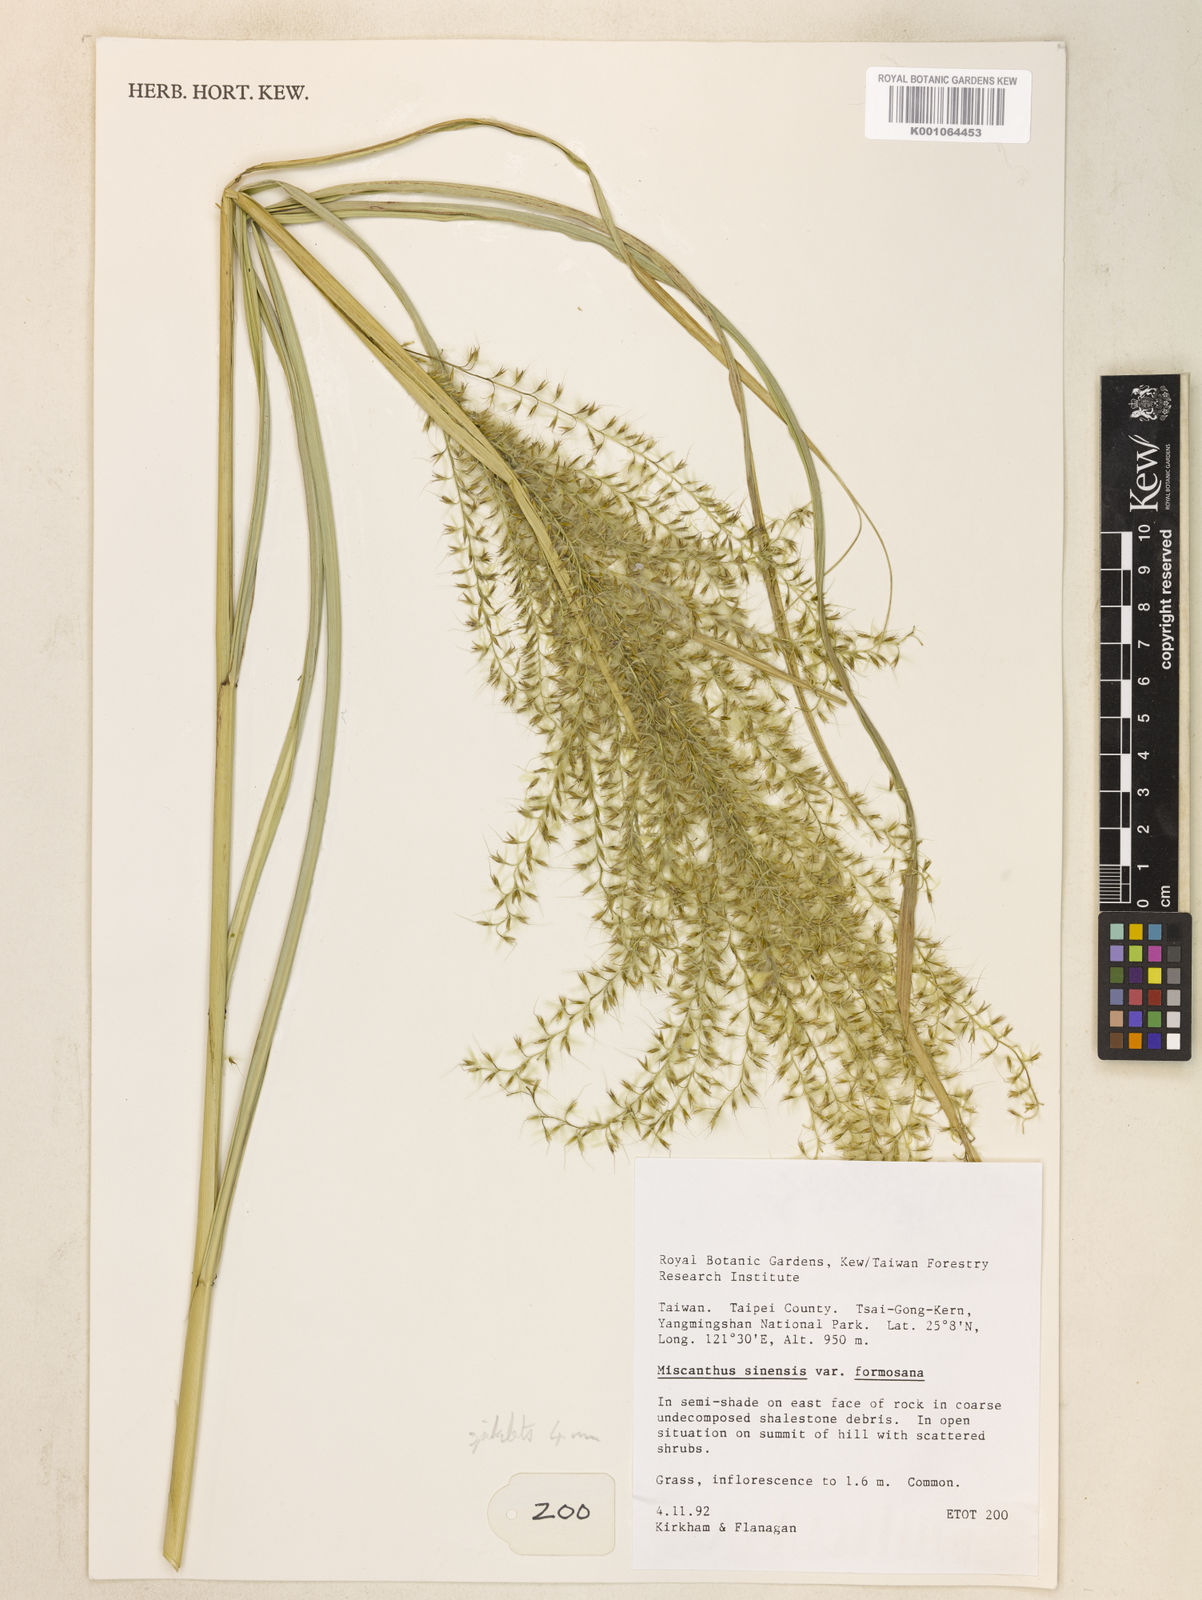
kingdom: Plantae
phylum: Tracheophyta
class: Liliopsida
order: Poales
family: Poaceae
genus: Miscanthus
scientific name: Miscanthus sinensis
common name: Chinese silvergrass
